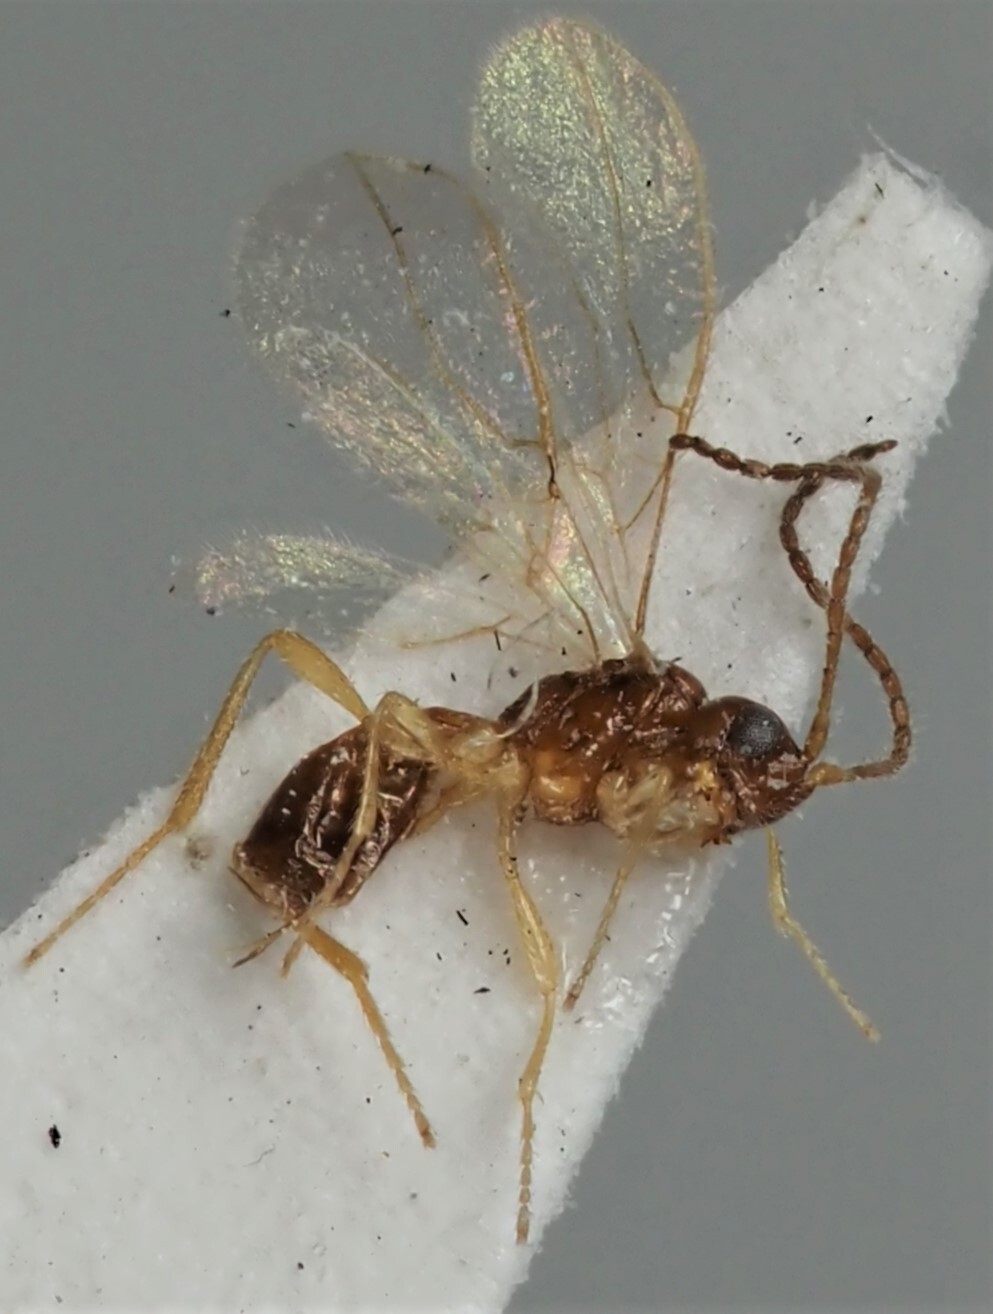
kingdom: Animalia
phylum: Arthropoda
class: Insecta
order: Hymenoptera
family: Braconidae
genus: Dinotrema
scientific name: Dinotrema dimorpha
